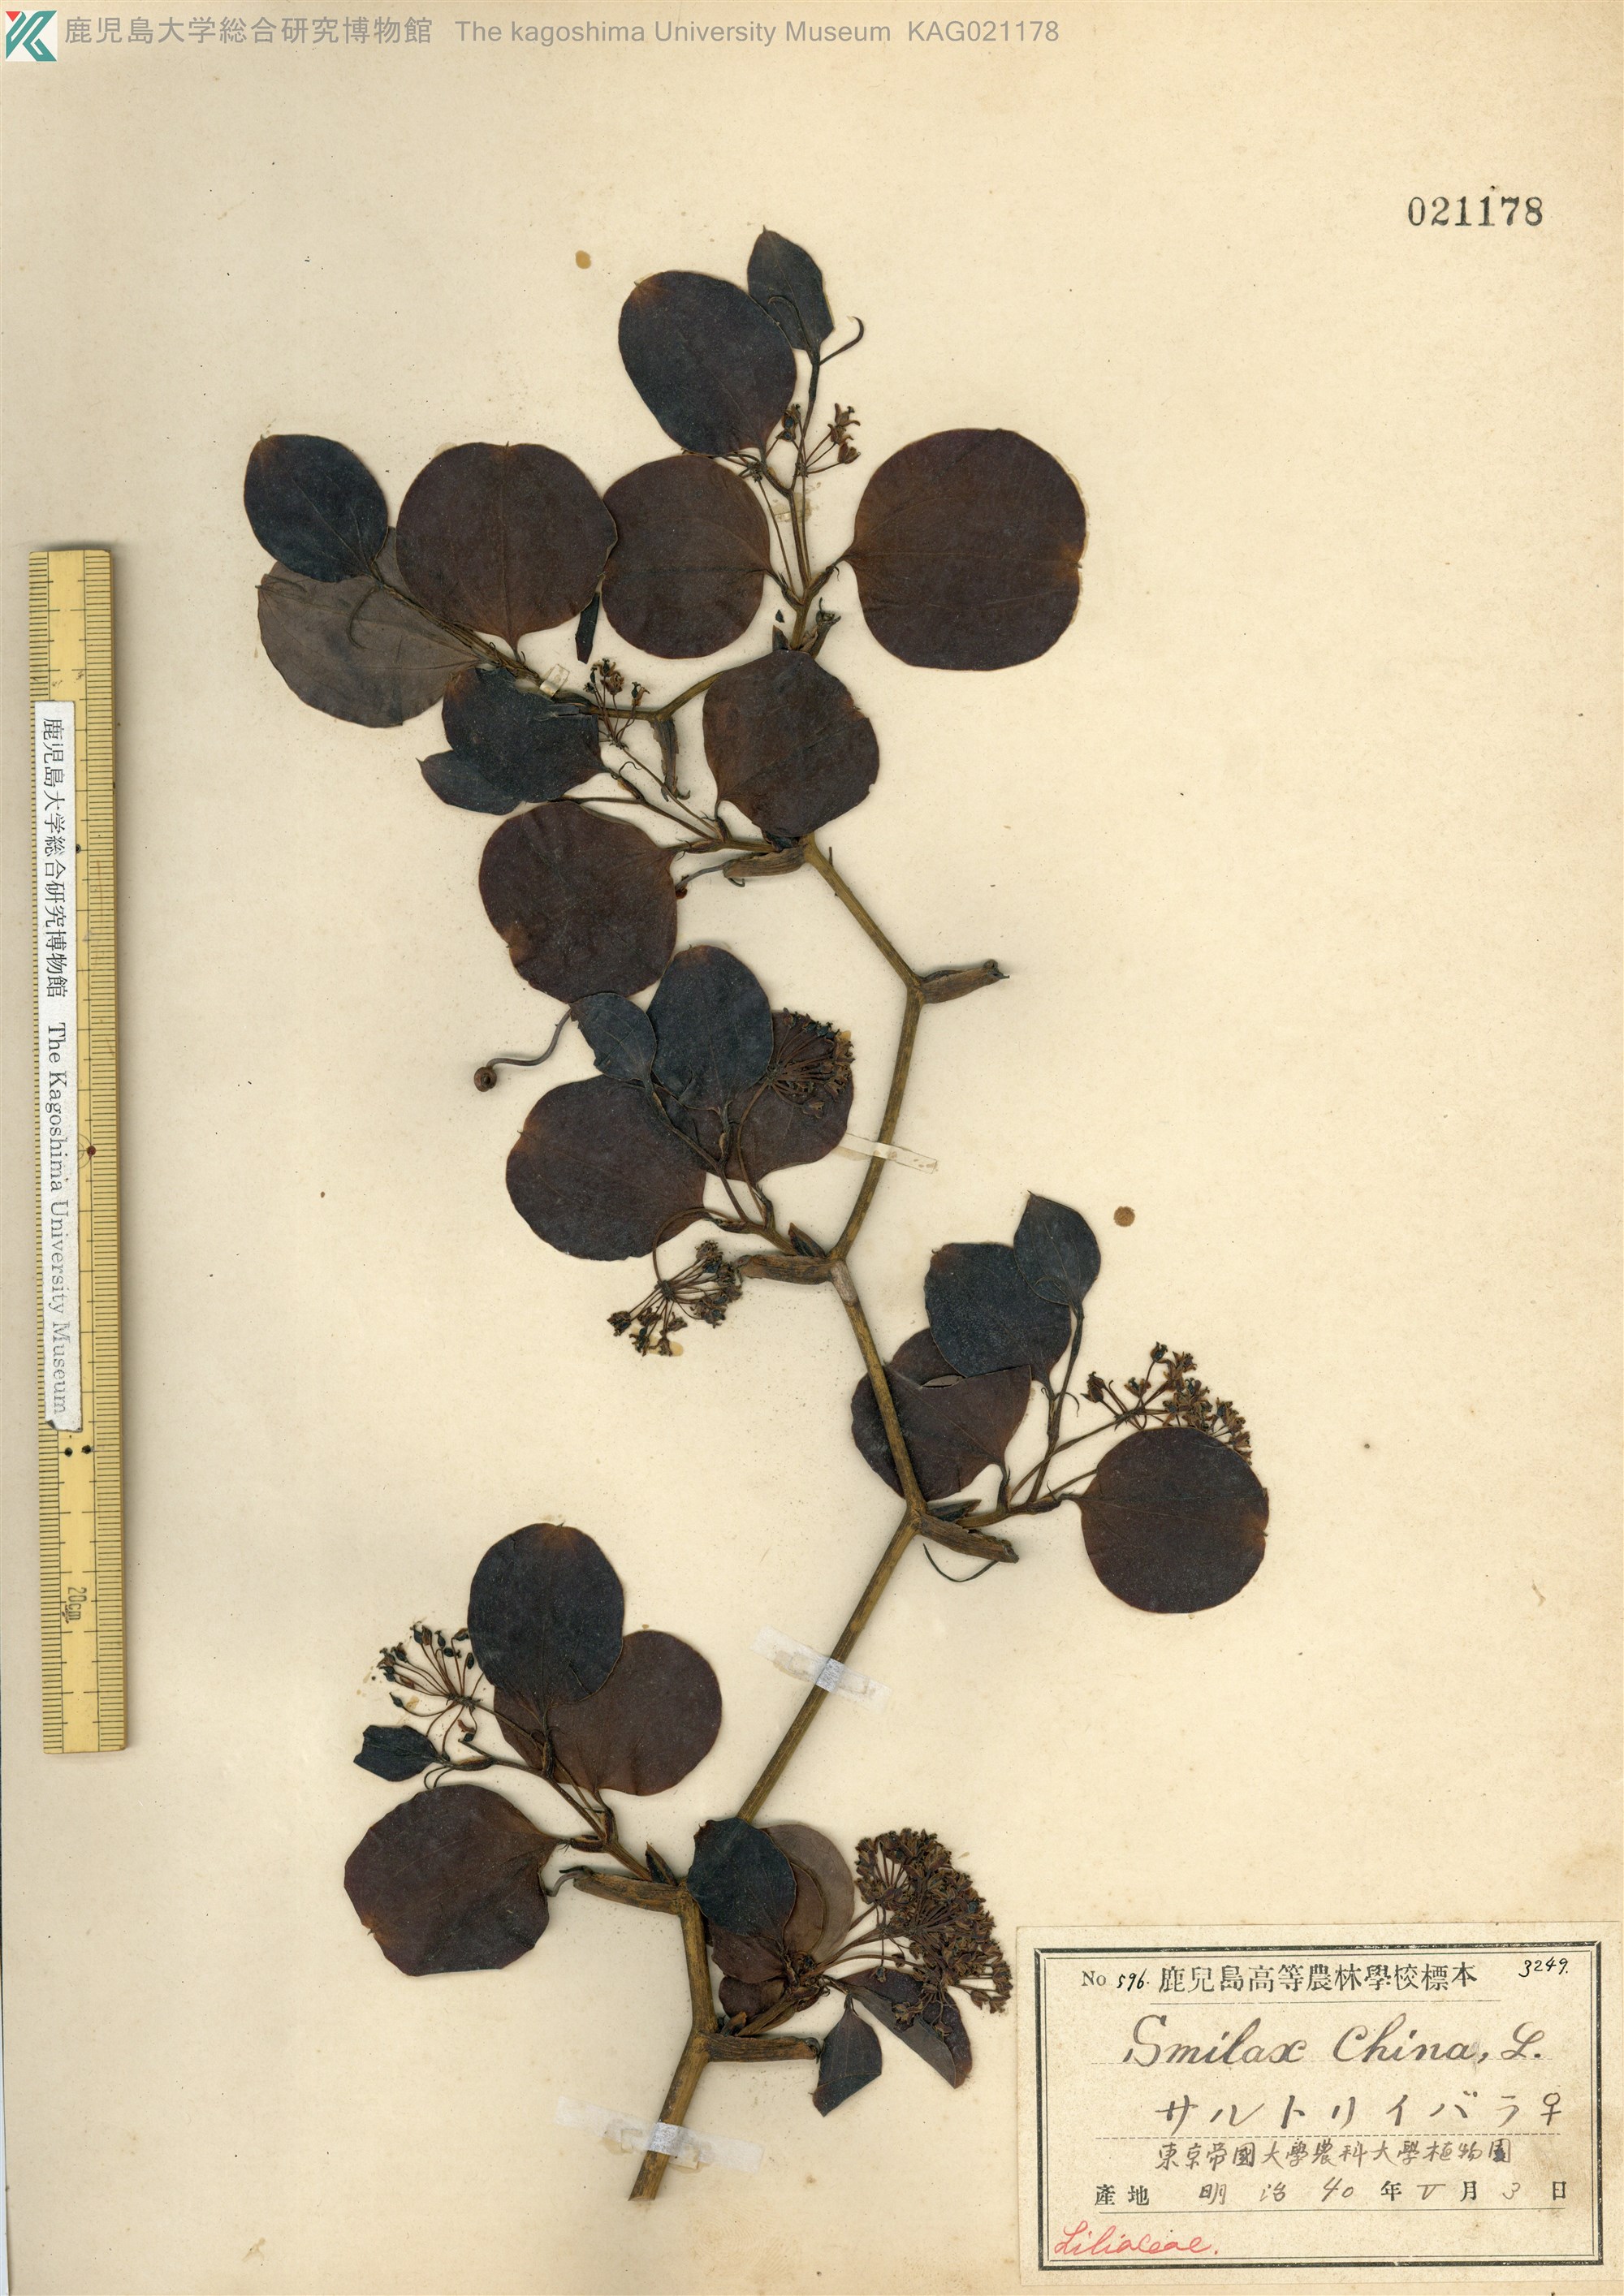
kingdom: Plantae
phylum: Tracheophyta
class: Liliopsida
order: Liliales
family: Smilacaceae
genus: Smilax
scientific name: Smilax china
